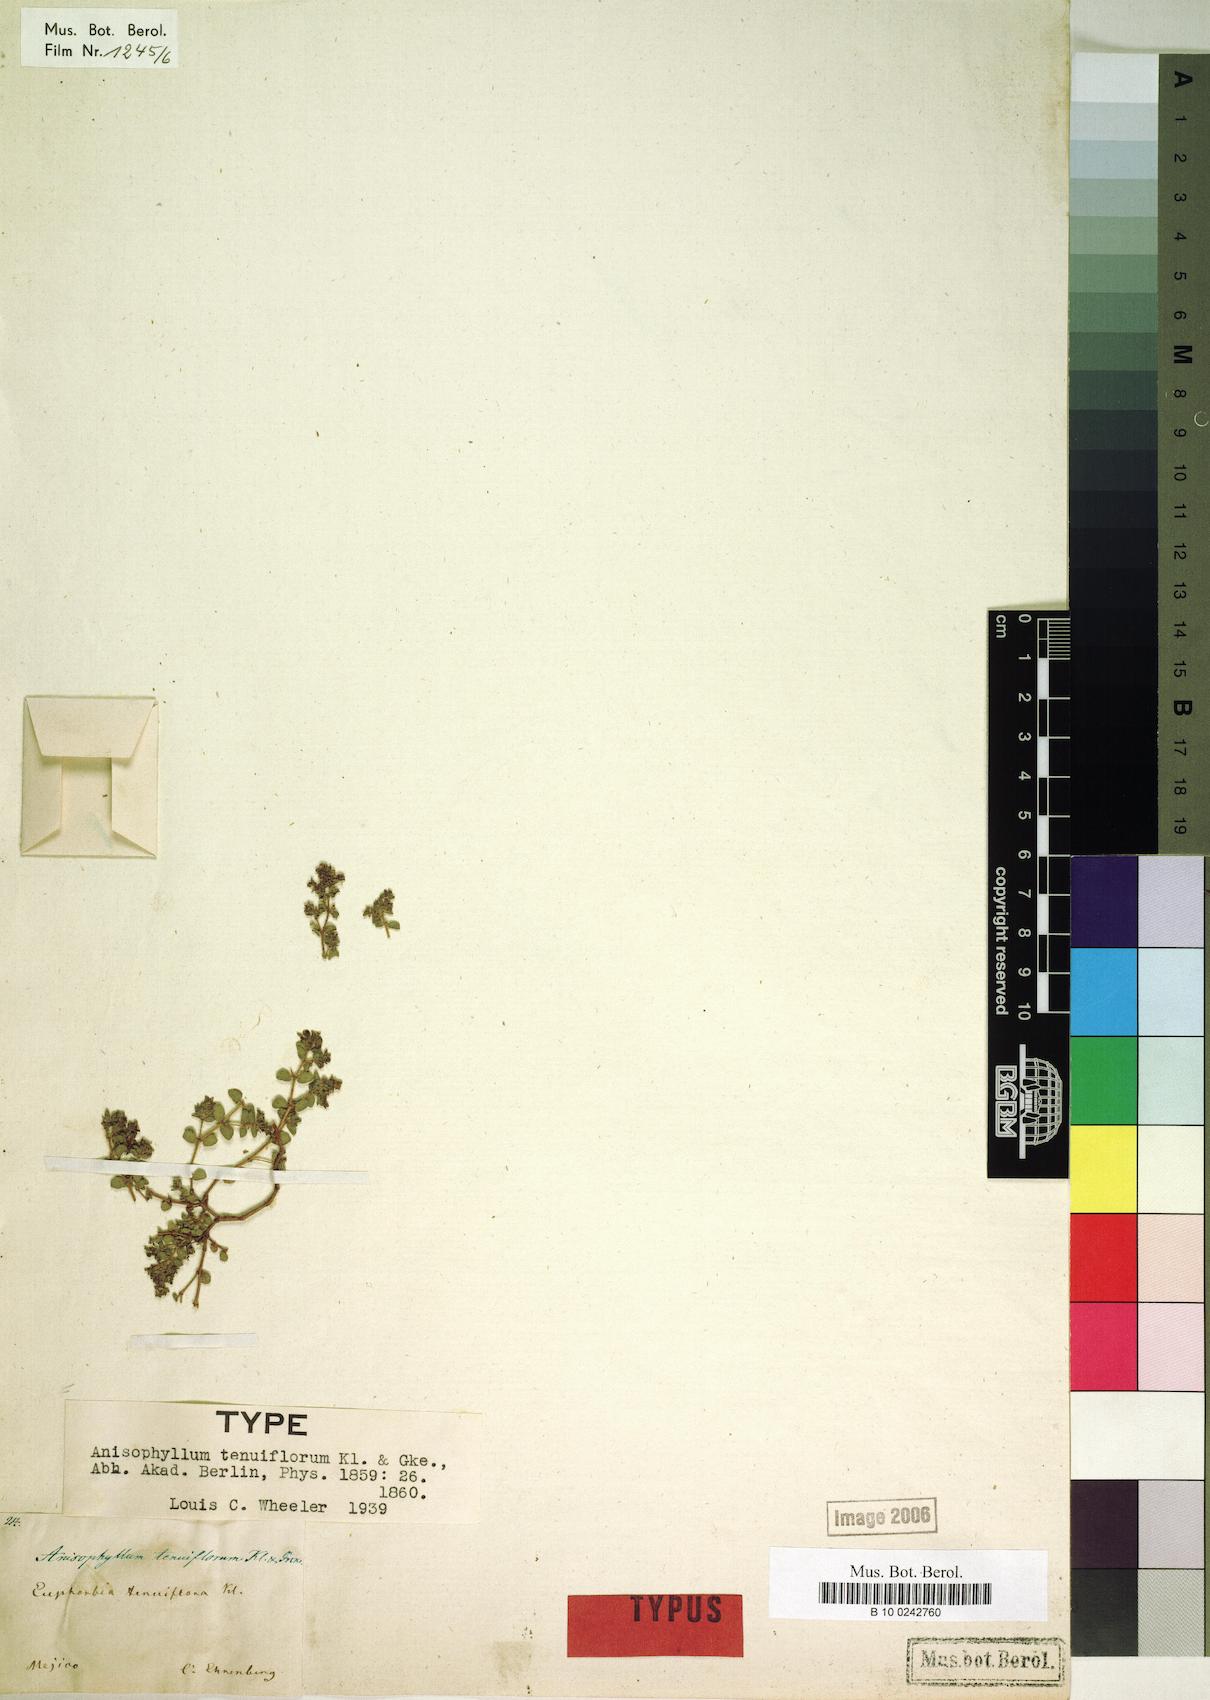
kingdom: Plantae
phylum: Tracheophyta
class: Magnoliopsida
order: Malpighiales
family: Euphorbiaceae
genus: Euphorbia
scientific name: Euphorbia velligera
